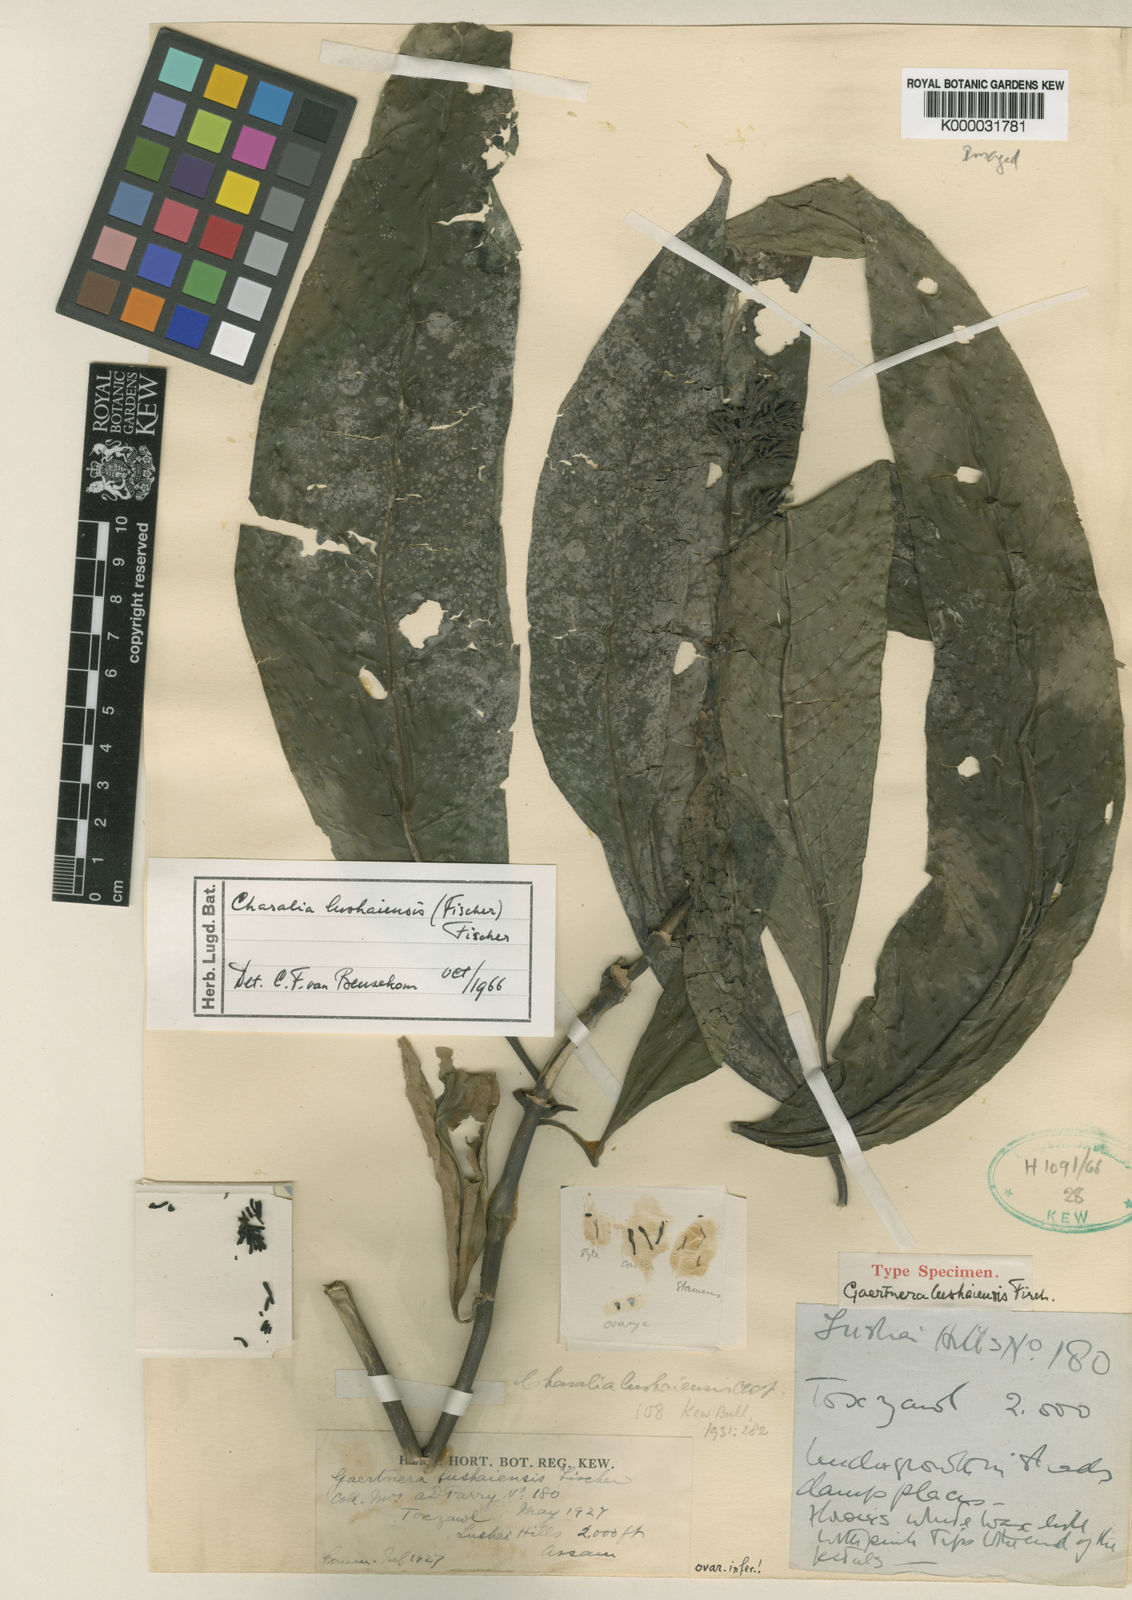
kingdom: Plantae
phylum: Tracheophyta
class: Magnoliopsida
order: Gentianales
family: Rubiaceae
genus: Chassalia
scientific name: Chassalia lushaiensis
